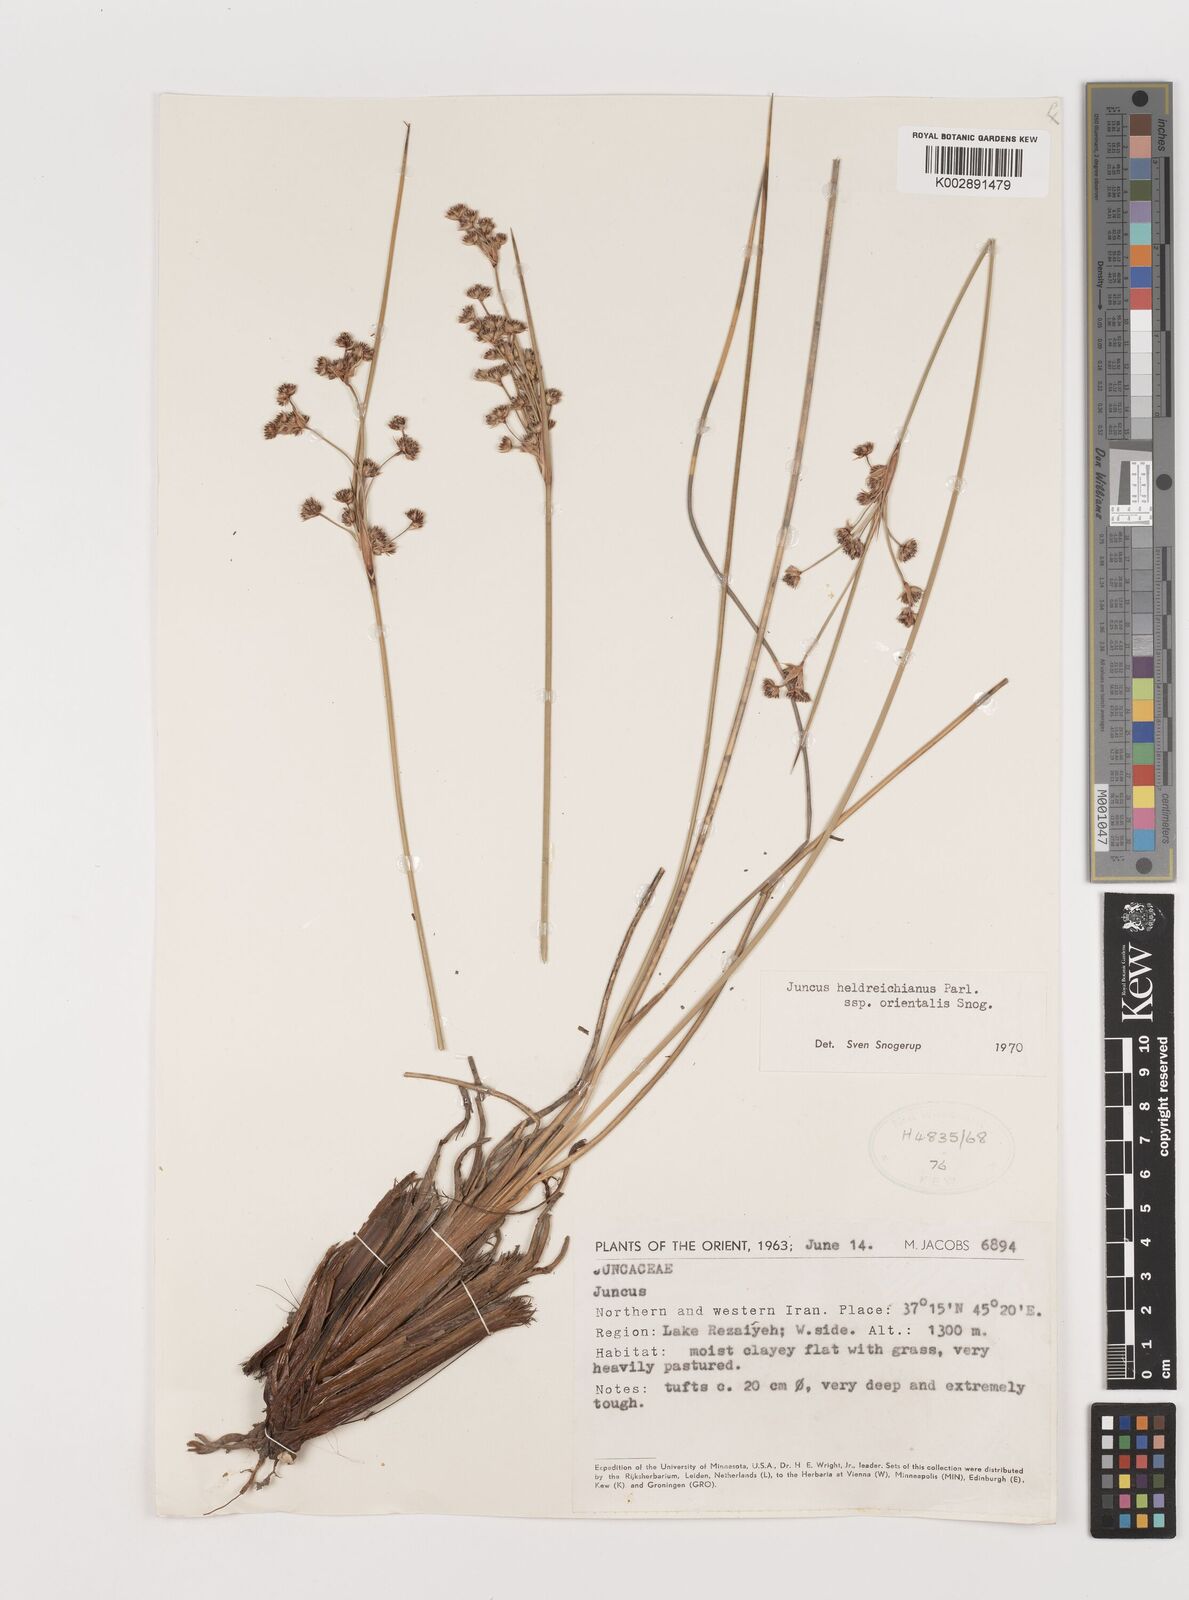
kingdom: Plantae
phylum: Tracheophyta
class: Liliopsida
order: Poales
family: Juncaceae
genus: Juncus
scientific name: Juncus heldreichianus
